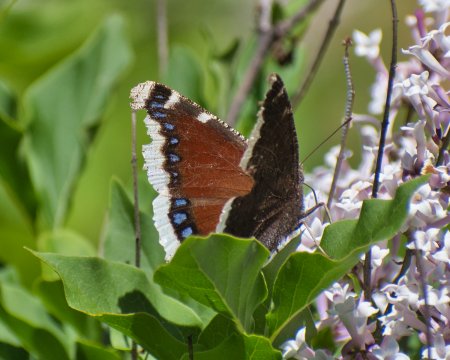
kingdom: Animalia
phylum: Arthropoda
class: Insecta
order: Lepidoptera
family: Nymphalidae
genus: Nymphalis
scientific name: Nymphalis antiopa
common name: Mourning Cloak
